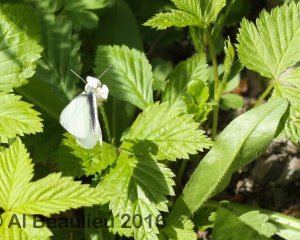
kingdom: Animalia
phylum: Arthropoda
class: Insecta
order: Lepidoptera
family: Pieridae
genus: Pieris
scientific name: Pieris rapae
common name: Cabbage White
